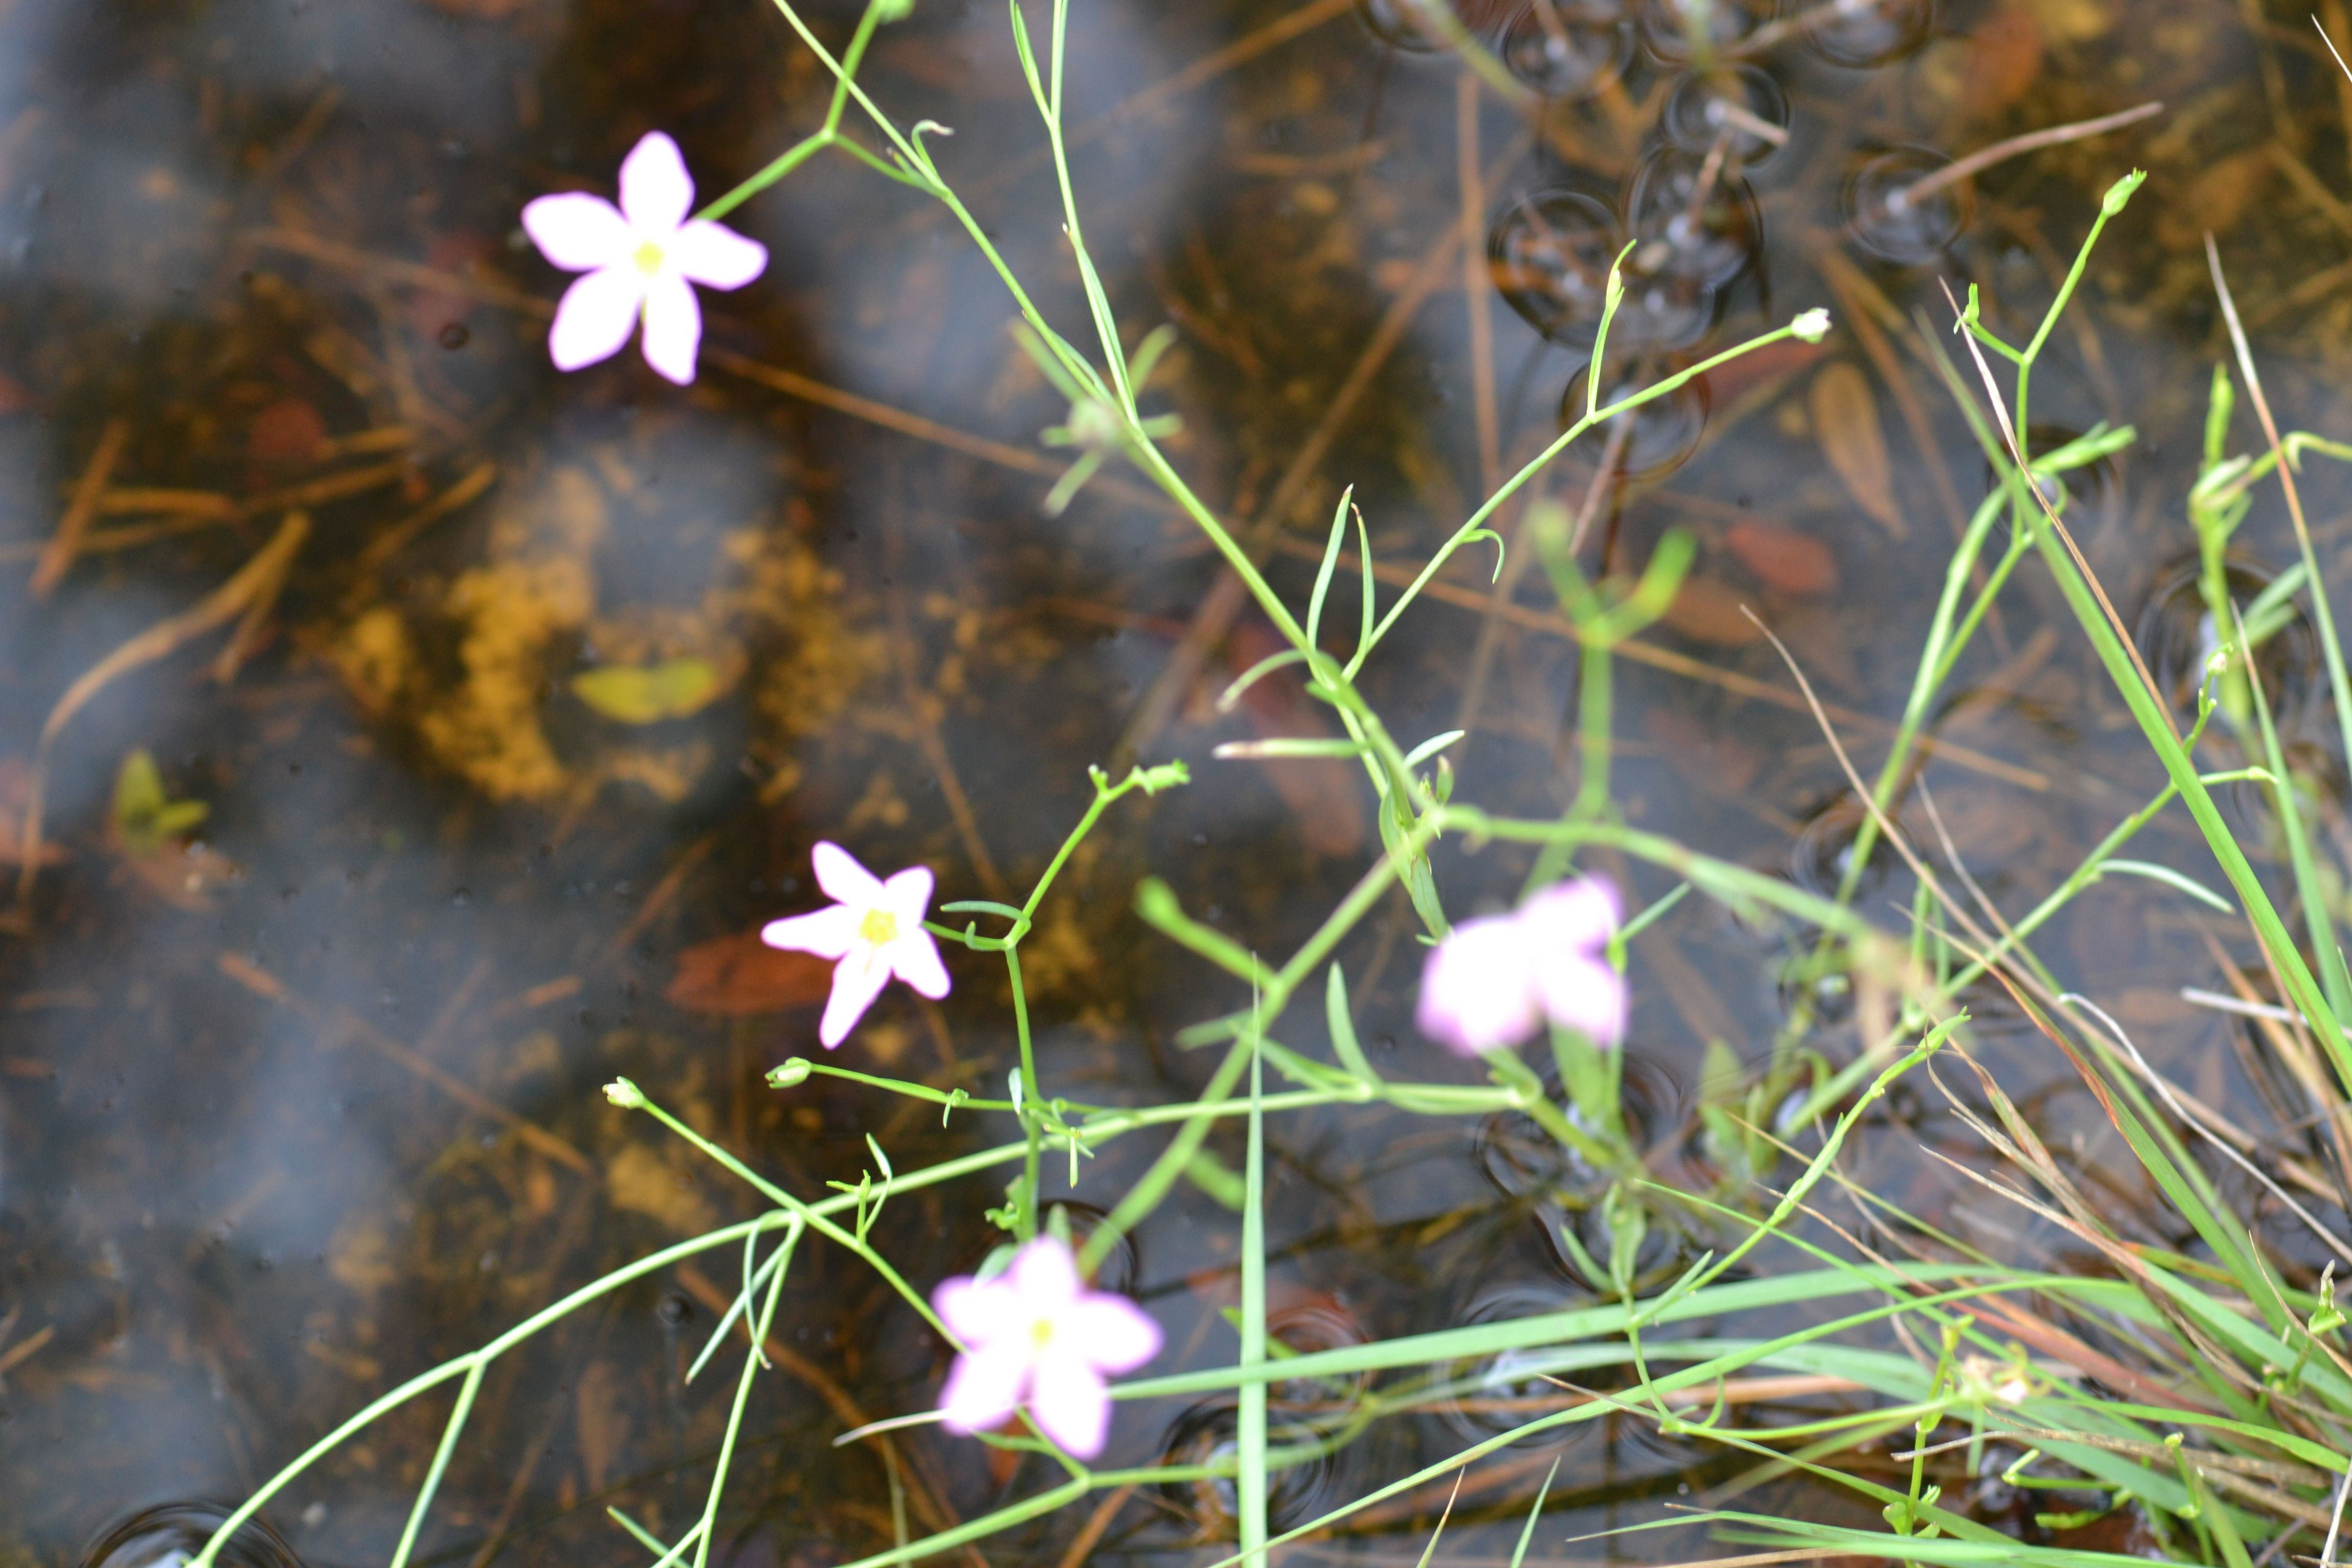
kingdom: Plantae
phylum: Tracheophyta
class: Magnoliopsida
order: Gentianales
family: Gentianaceae
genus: Sabatia
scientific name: Sabatia calycina
